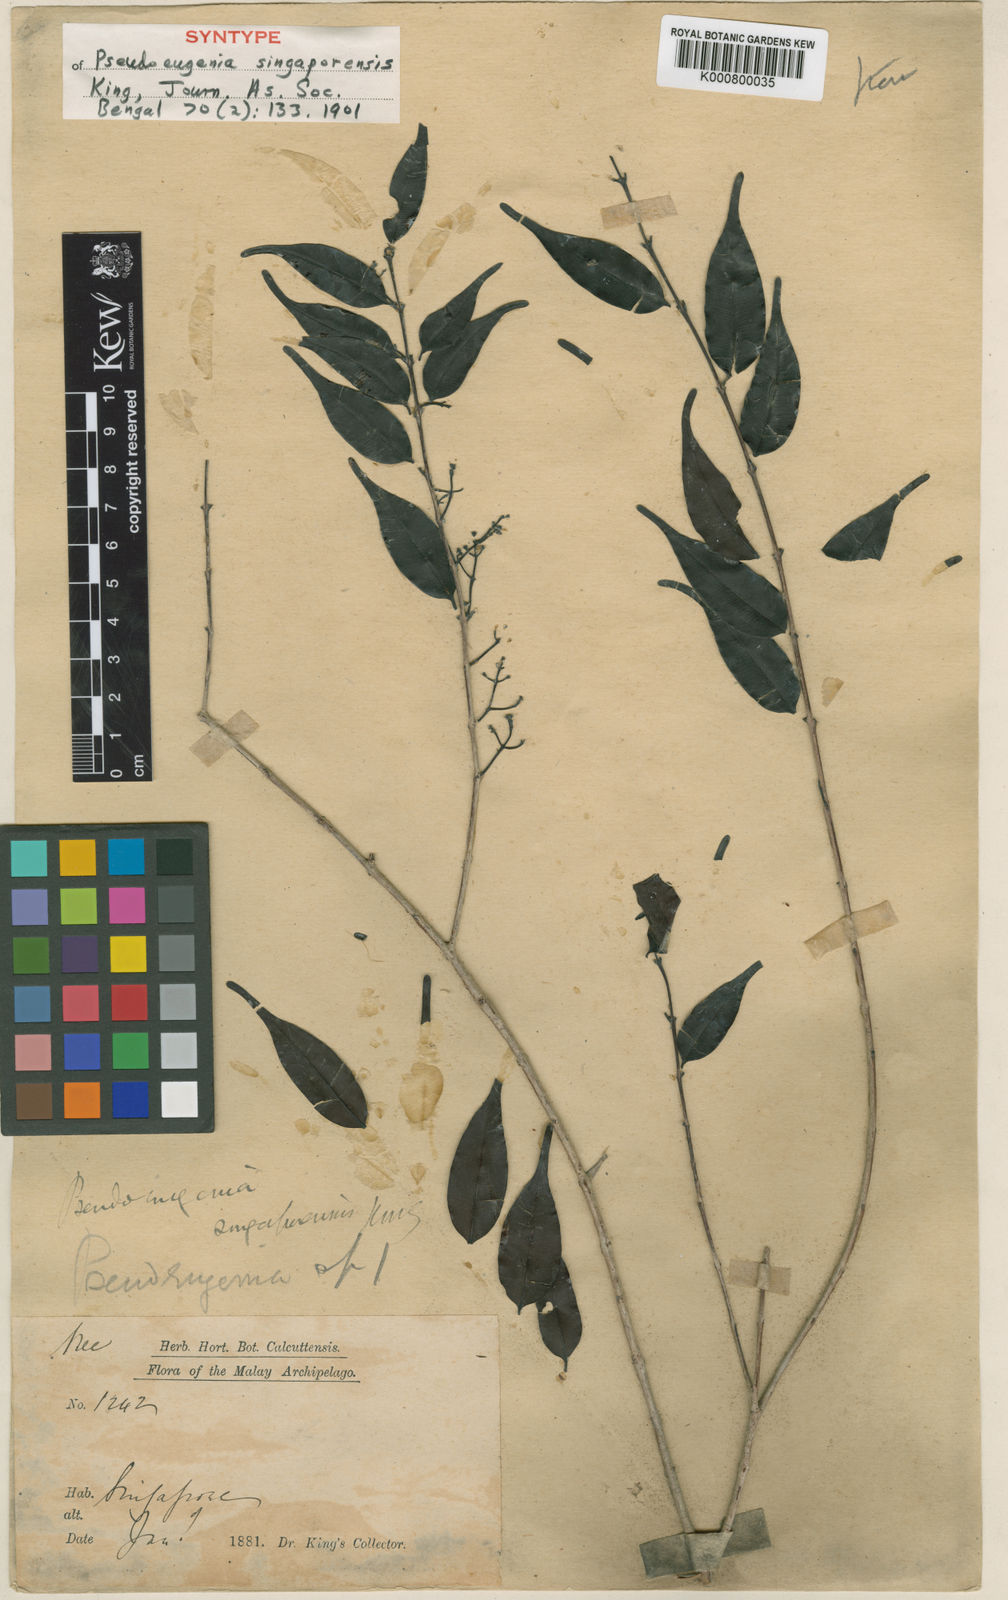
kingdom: Plantae
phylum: Tracheophyta
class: Magnoliopsida
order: Myrtales
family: Myrtaceae
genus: Syzygium
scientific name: Syzygium rostratum
